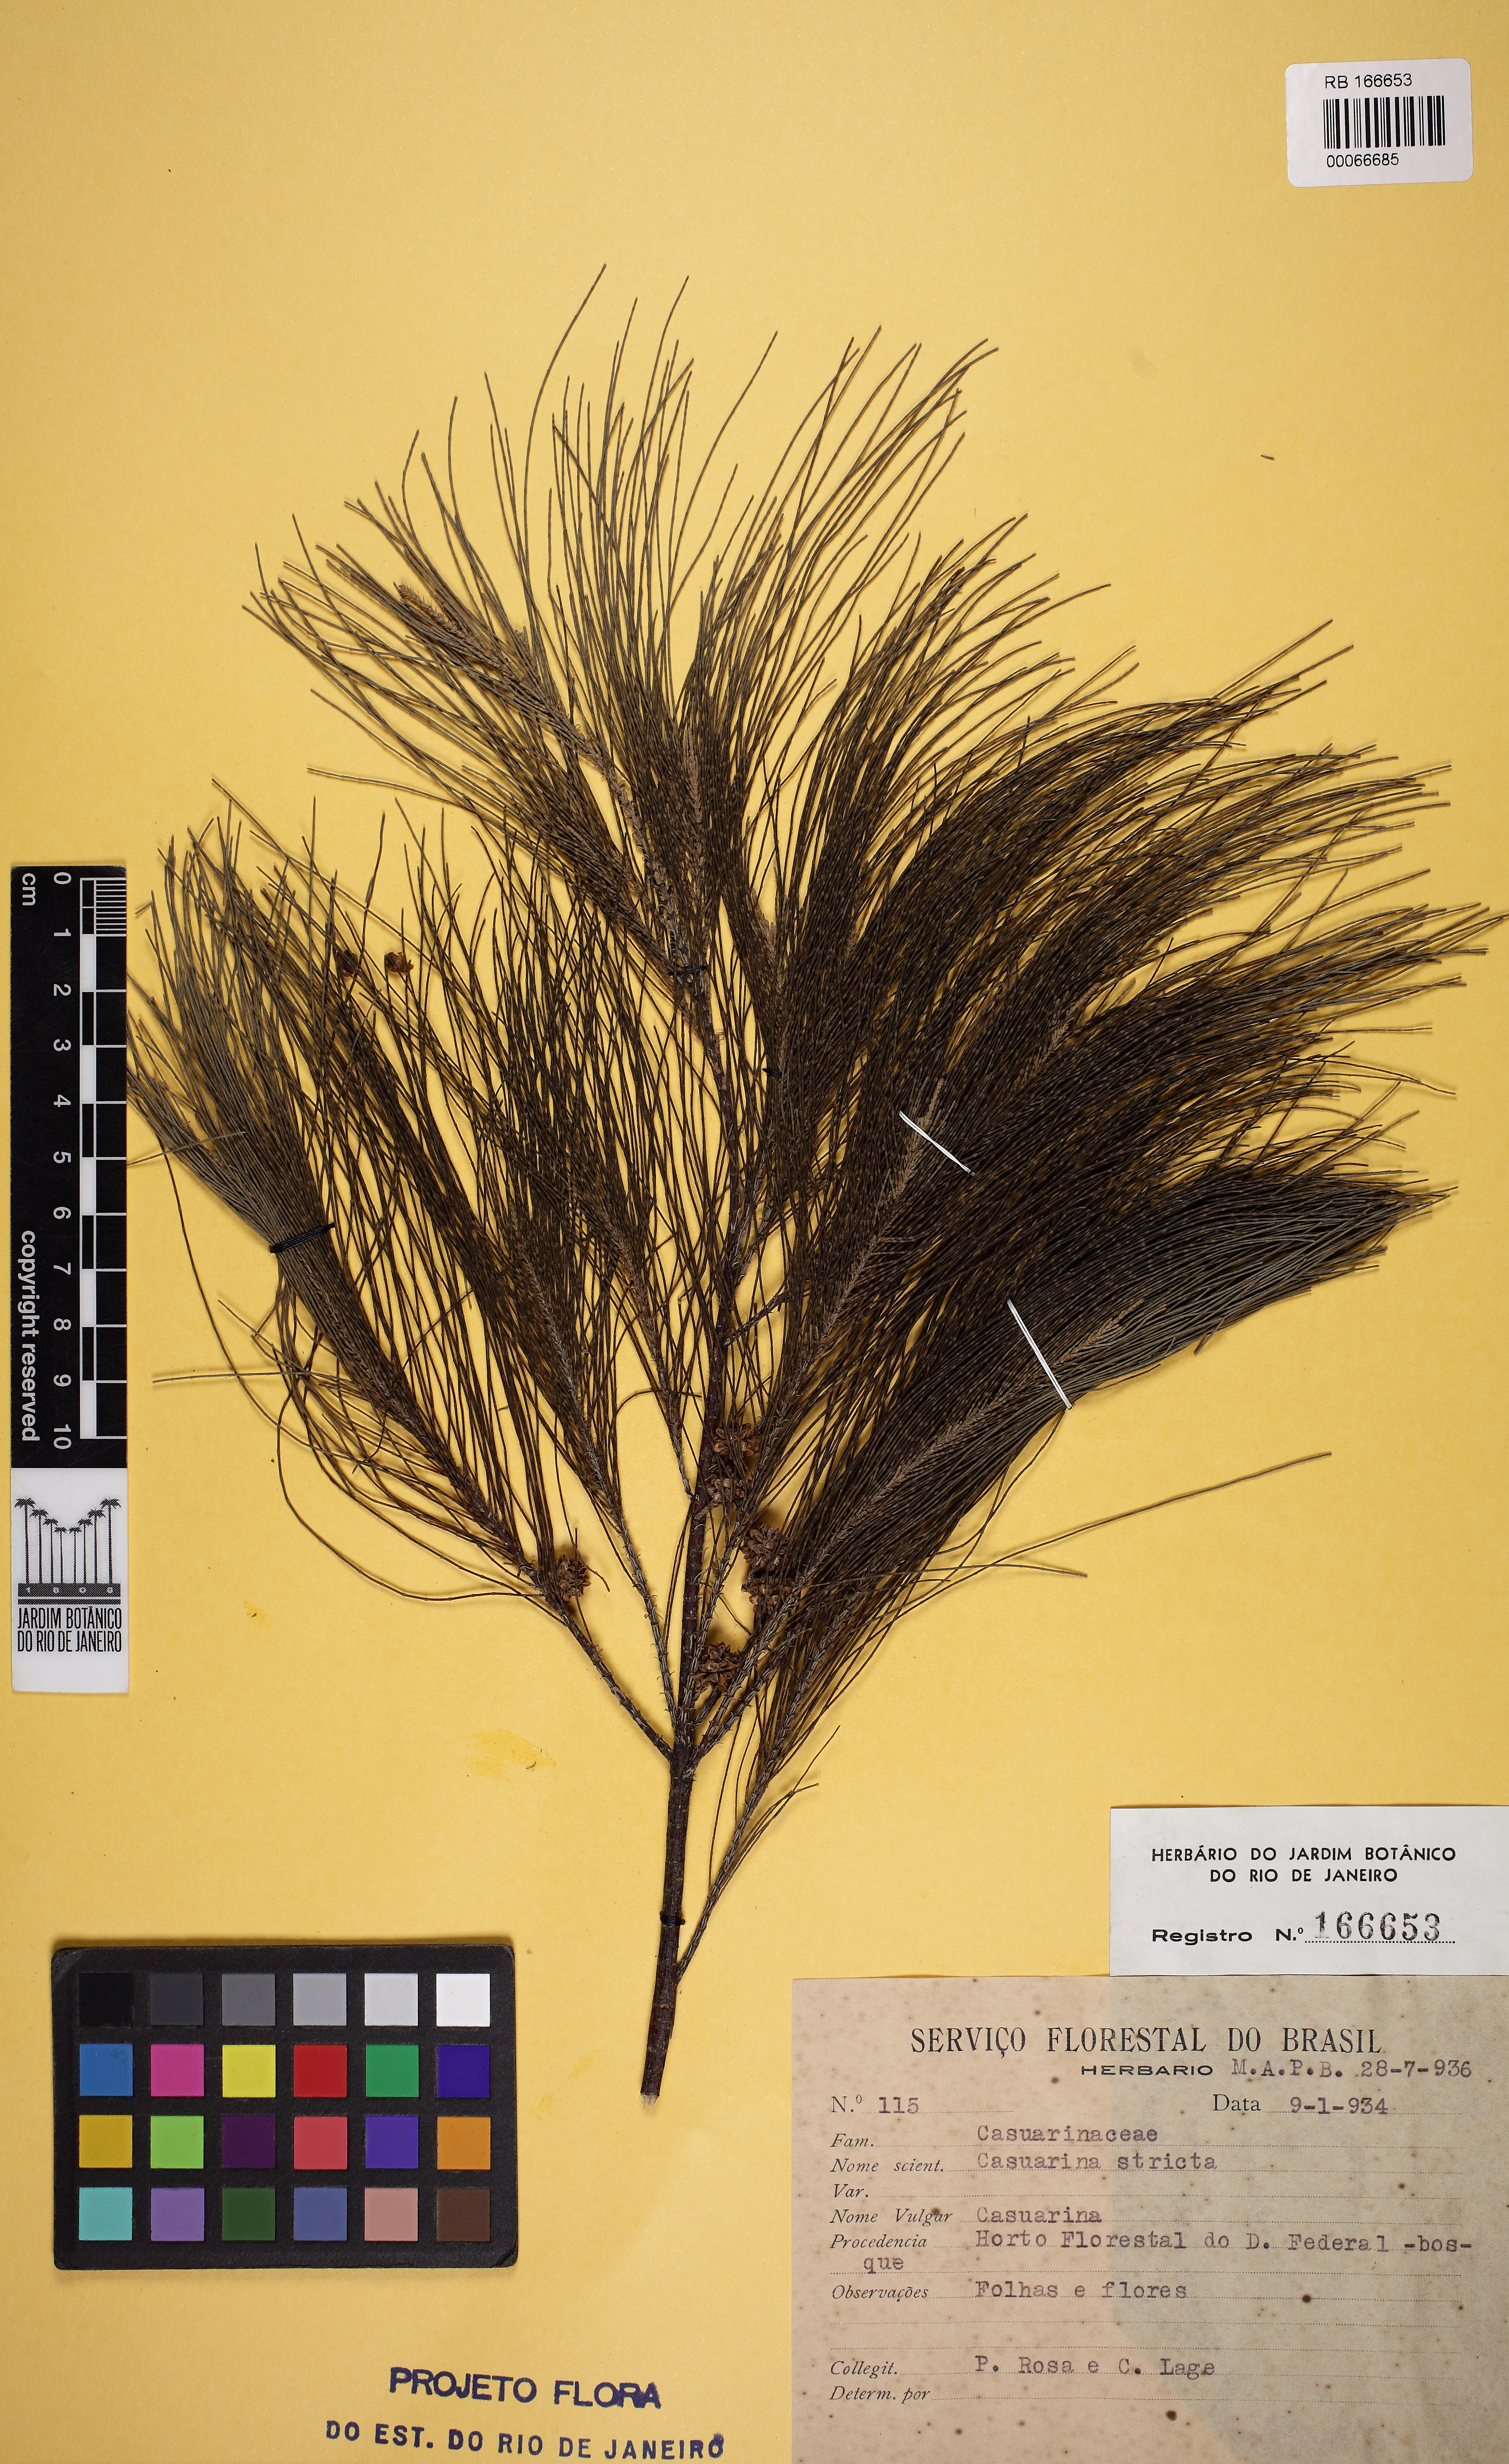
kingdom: Plantae
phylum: Tracheophyta
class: Magnoliopsida
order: Fagales
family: Casuarinaceae
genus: Casuarina
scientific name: Casuarina
